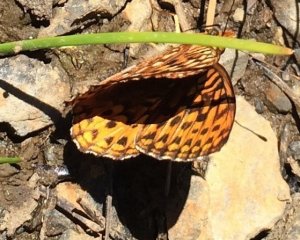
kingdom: Animalia
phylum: Arthropoda
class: Insecta
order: Lepidoptera
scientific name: Lepidoptera
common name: Butterflies
